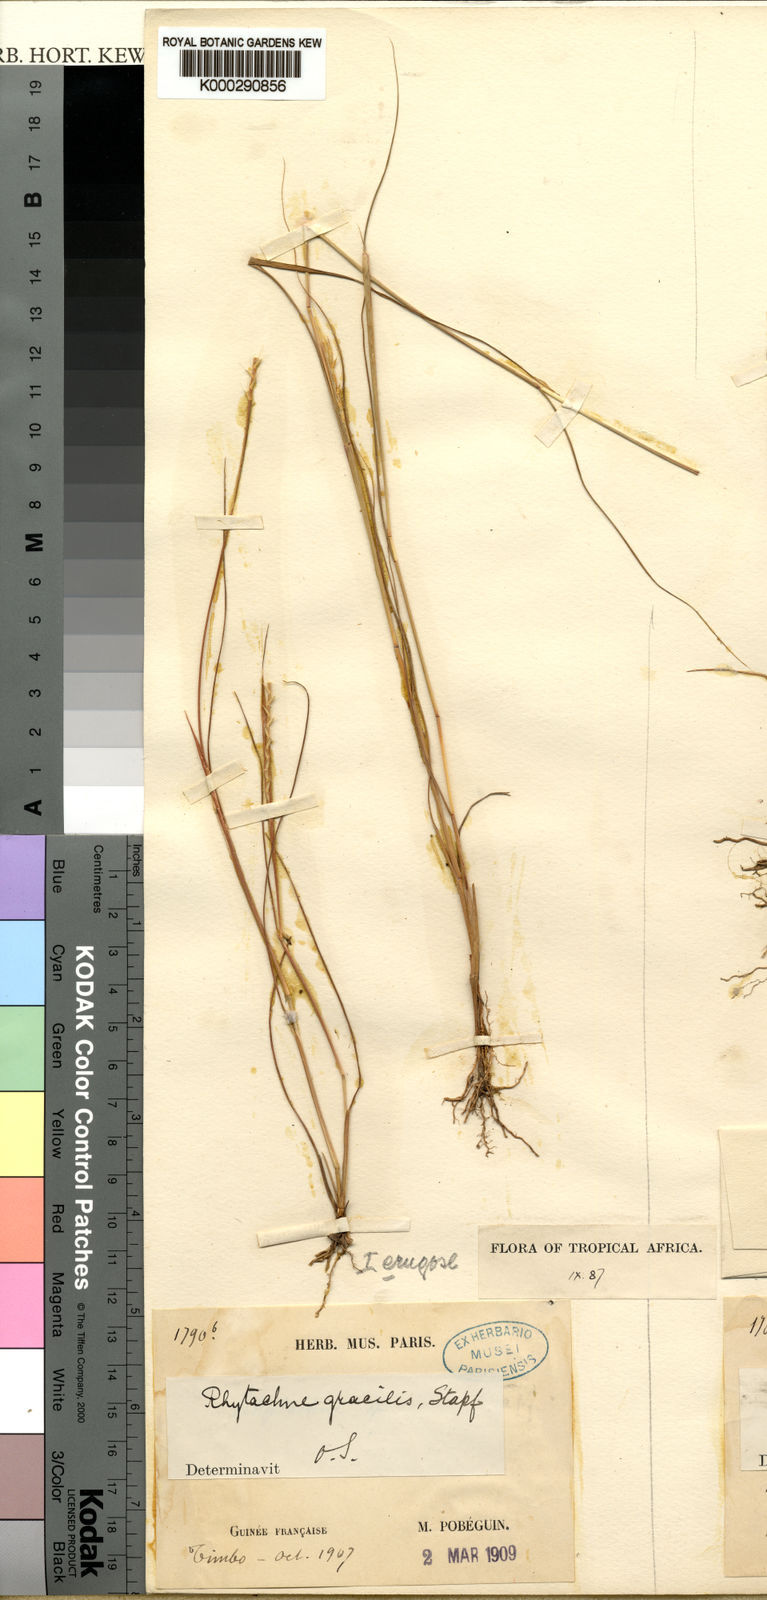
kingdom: Plantae
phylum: Tracheophyta
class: Liliopsida
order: Poales
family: Poaceae
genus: Rhytachne
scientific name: Rhytachne gracilis
